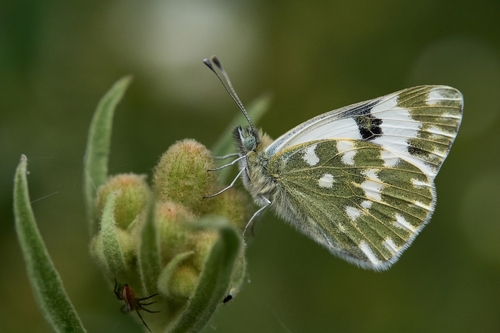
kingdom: Animalia
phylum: Arthropoda
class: Insecta
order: Lepidoptera
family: Pieridae
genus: Pontia
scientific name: Pontia daplidice
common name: Bath white
